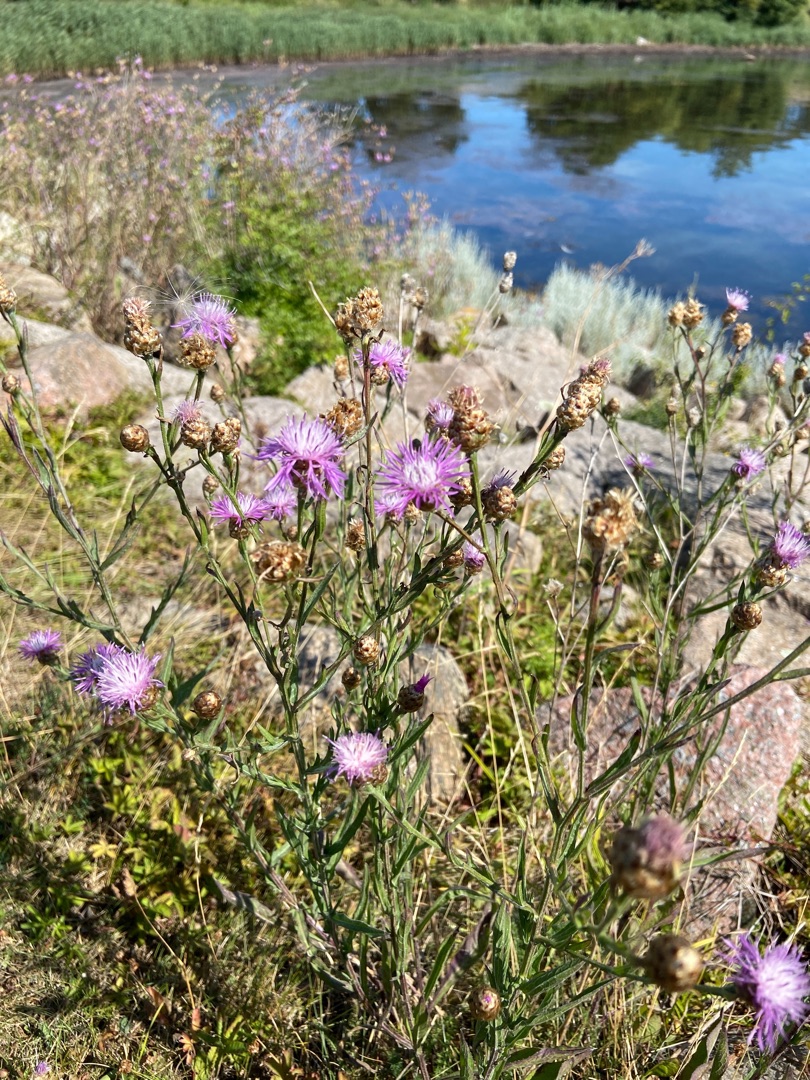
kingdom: Plantae
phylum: Tracheophyta
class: Magnoliopsida
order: Asterales
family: Asteraceae
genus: Centaurea
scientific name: Centaurea jacea
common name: Almindelig knopurt
